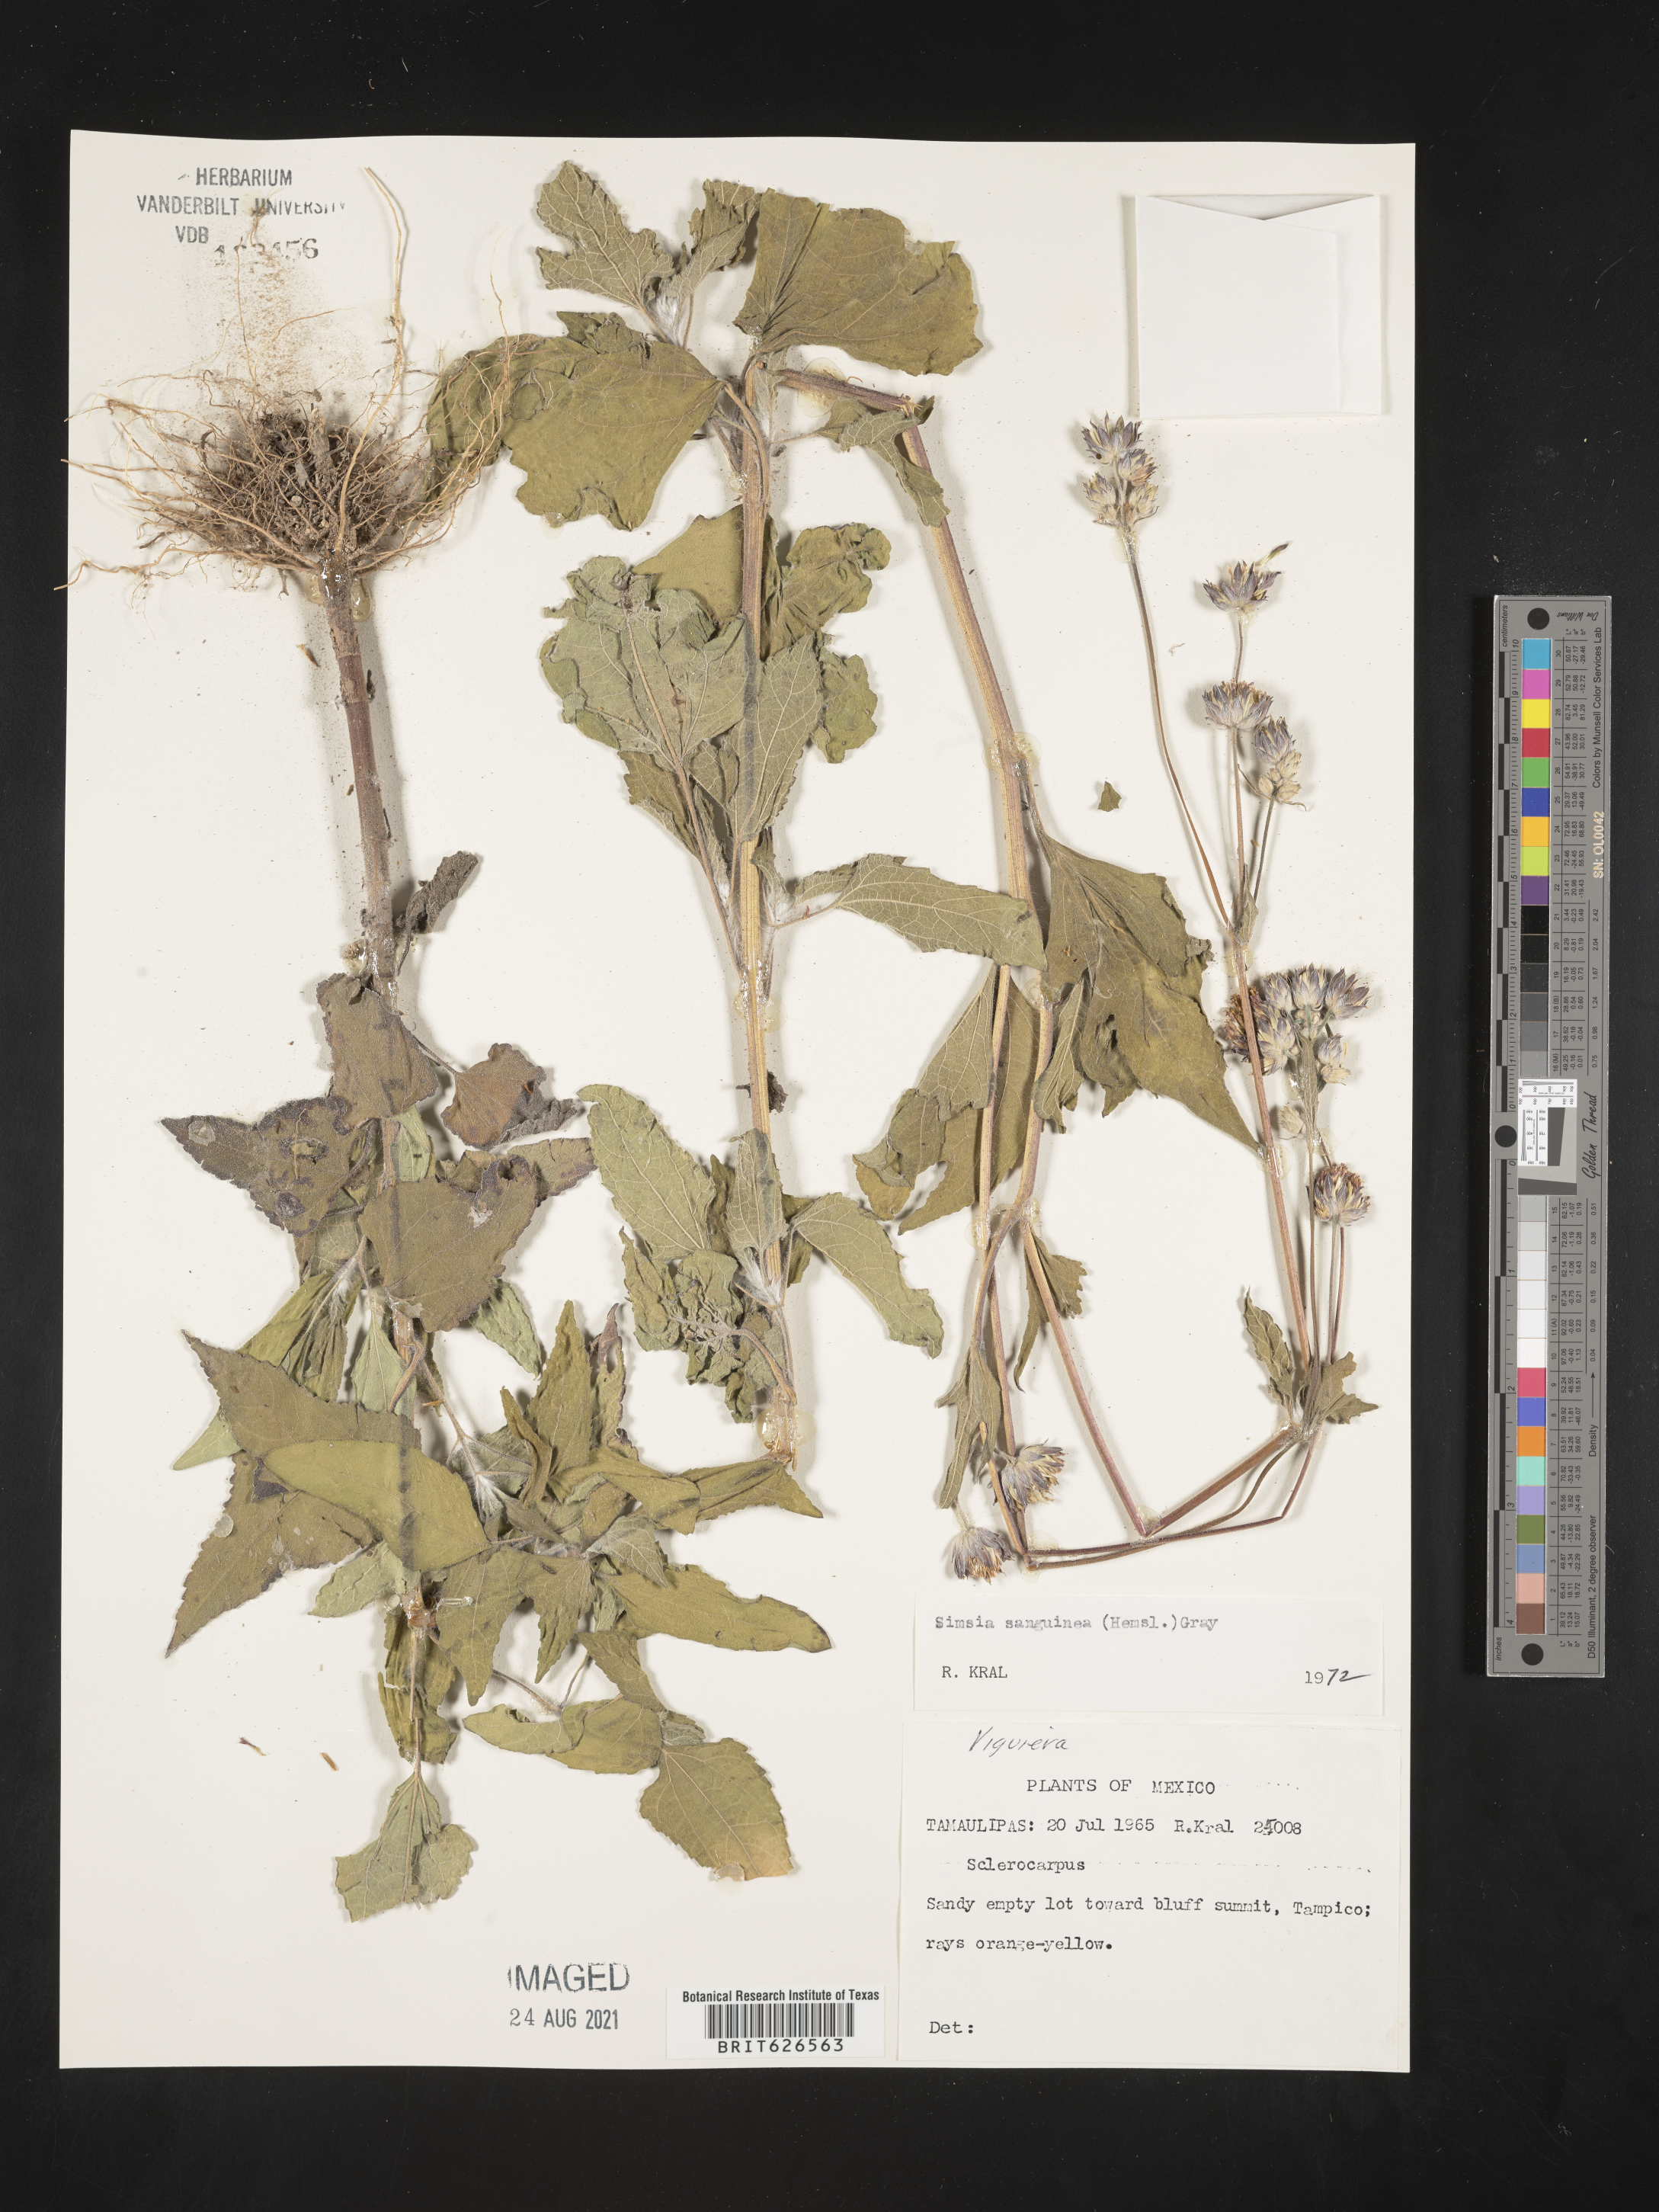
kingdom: Plantae
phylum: Tracheophyta
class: Magnoliopsida
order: Asterales
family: Asteraceae
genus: Simsia
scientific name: Simsia
